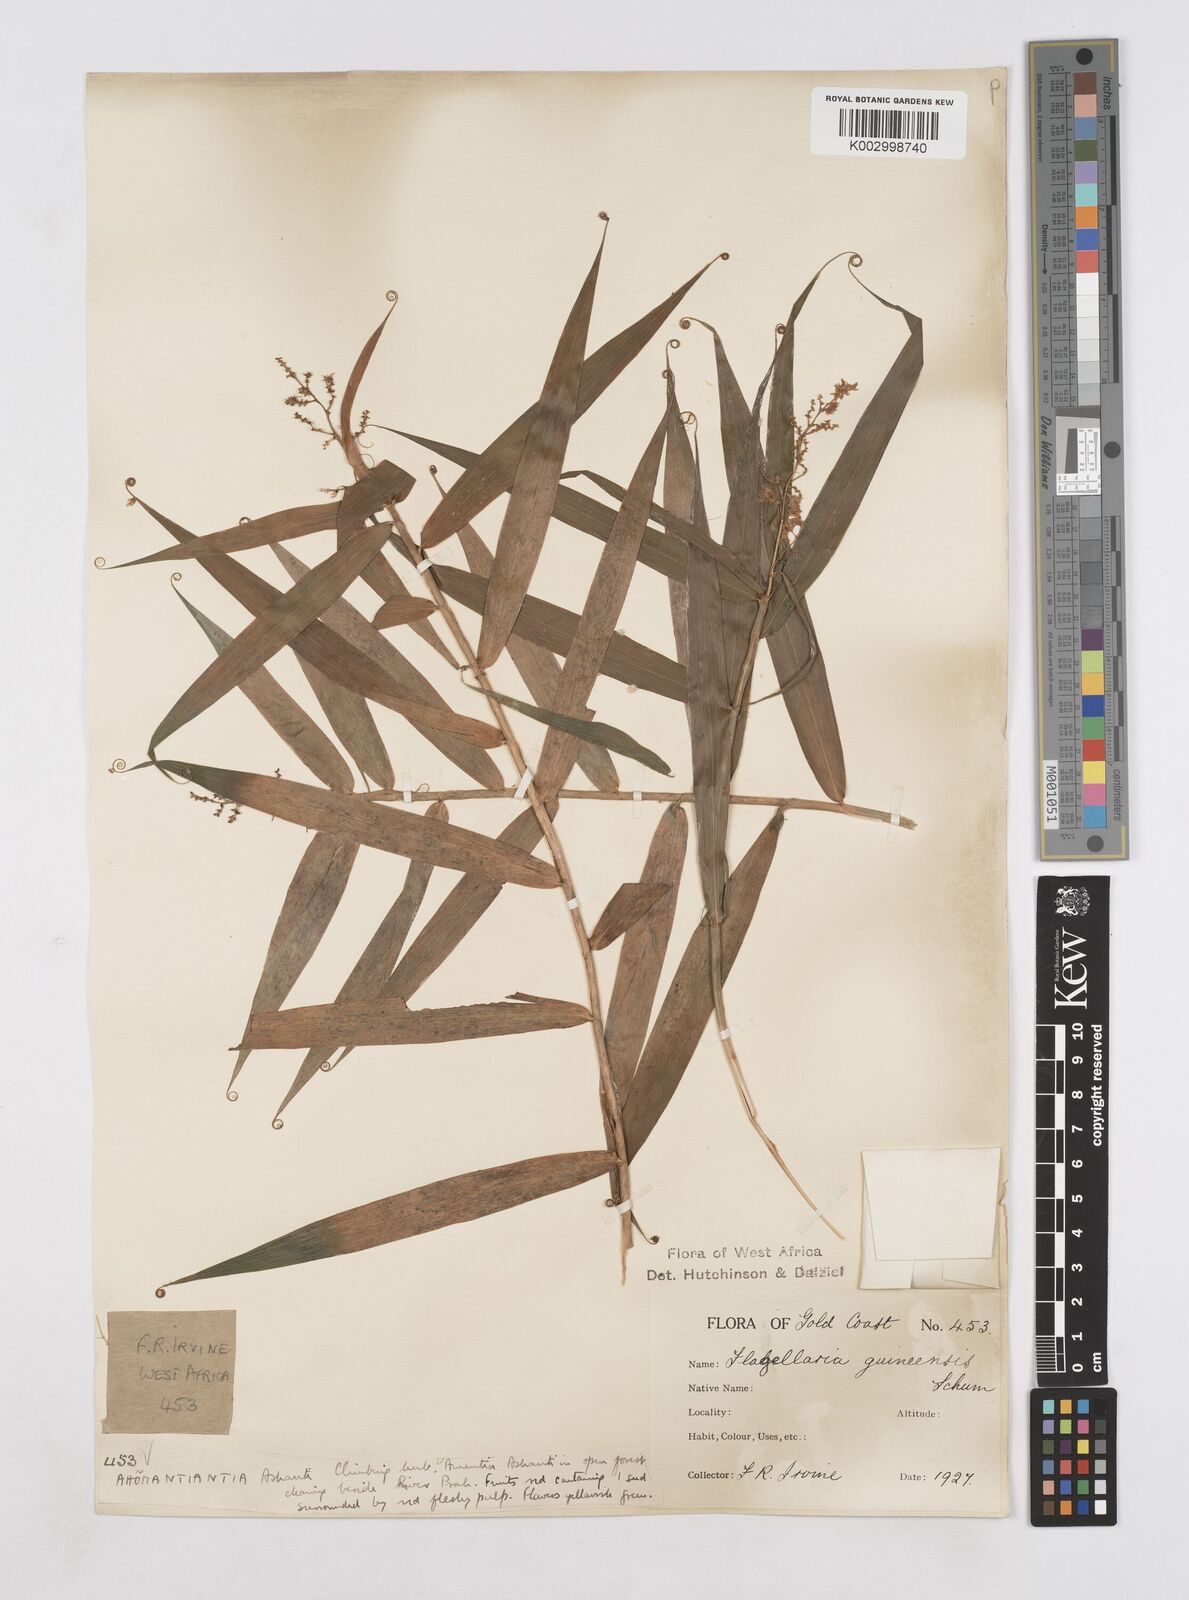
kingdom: Plantae
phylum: Tracheophyta
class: Liliopsida
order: Poales
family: Flagellariaceae
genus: Flagellaria
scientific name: Flagellaria guineensis
